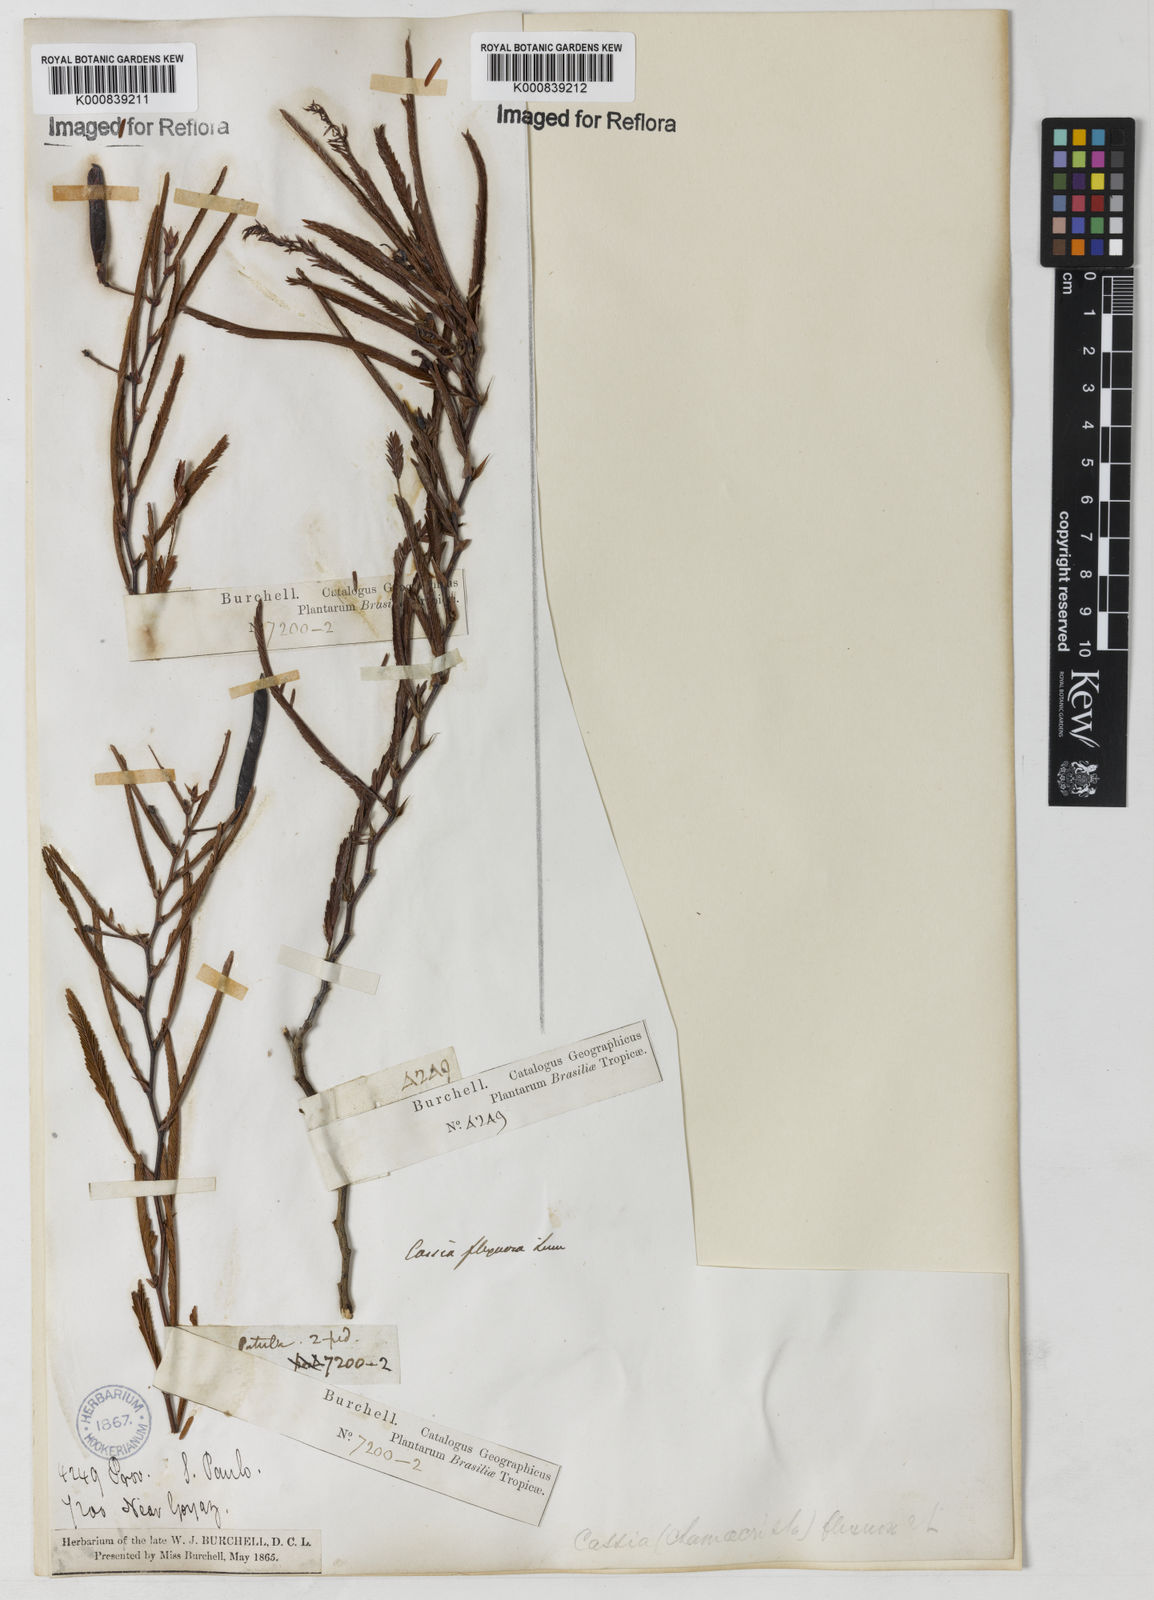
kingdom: Plantae
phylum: Tracheophyta
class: Magnoliopsida
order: Fabales
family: Fabaceae
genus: Chamaecrista
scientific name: Chamaecrista flexuosa
